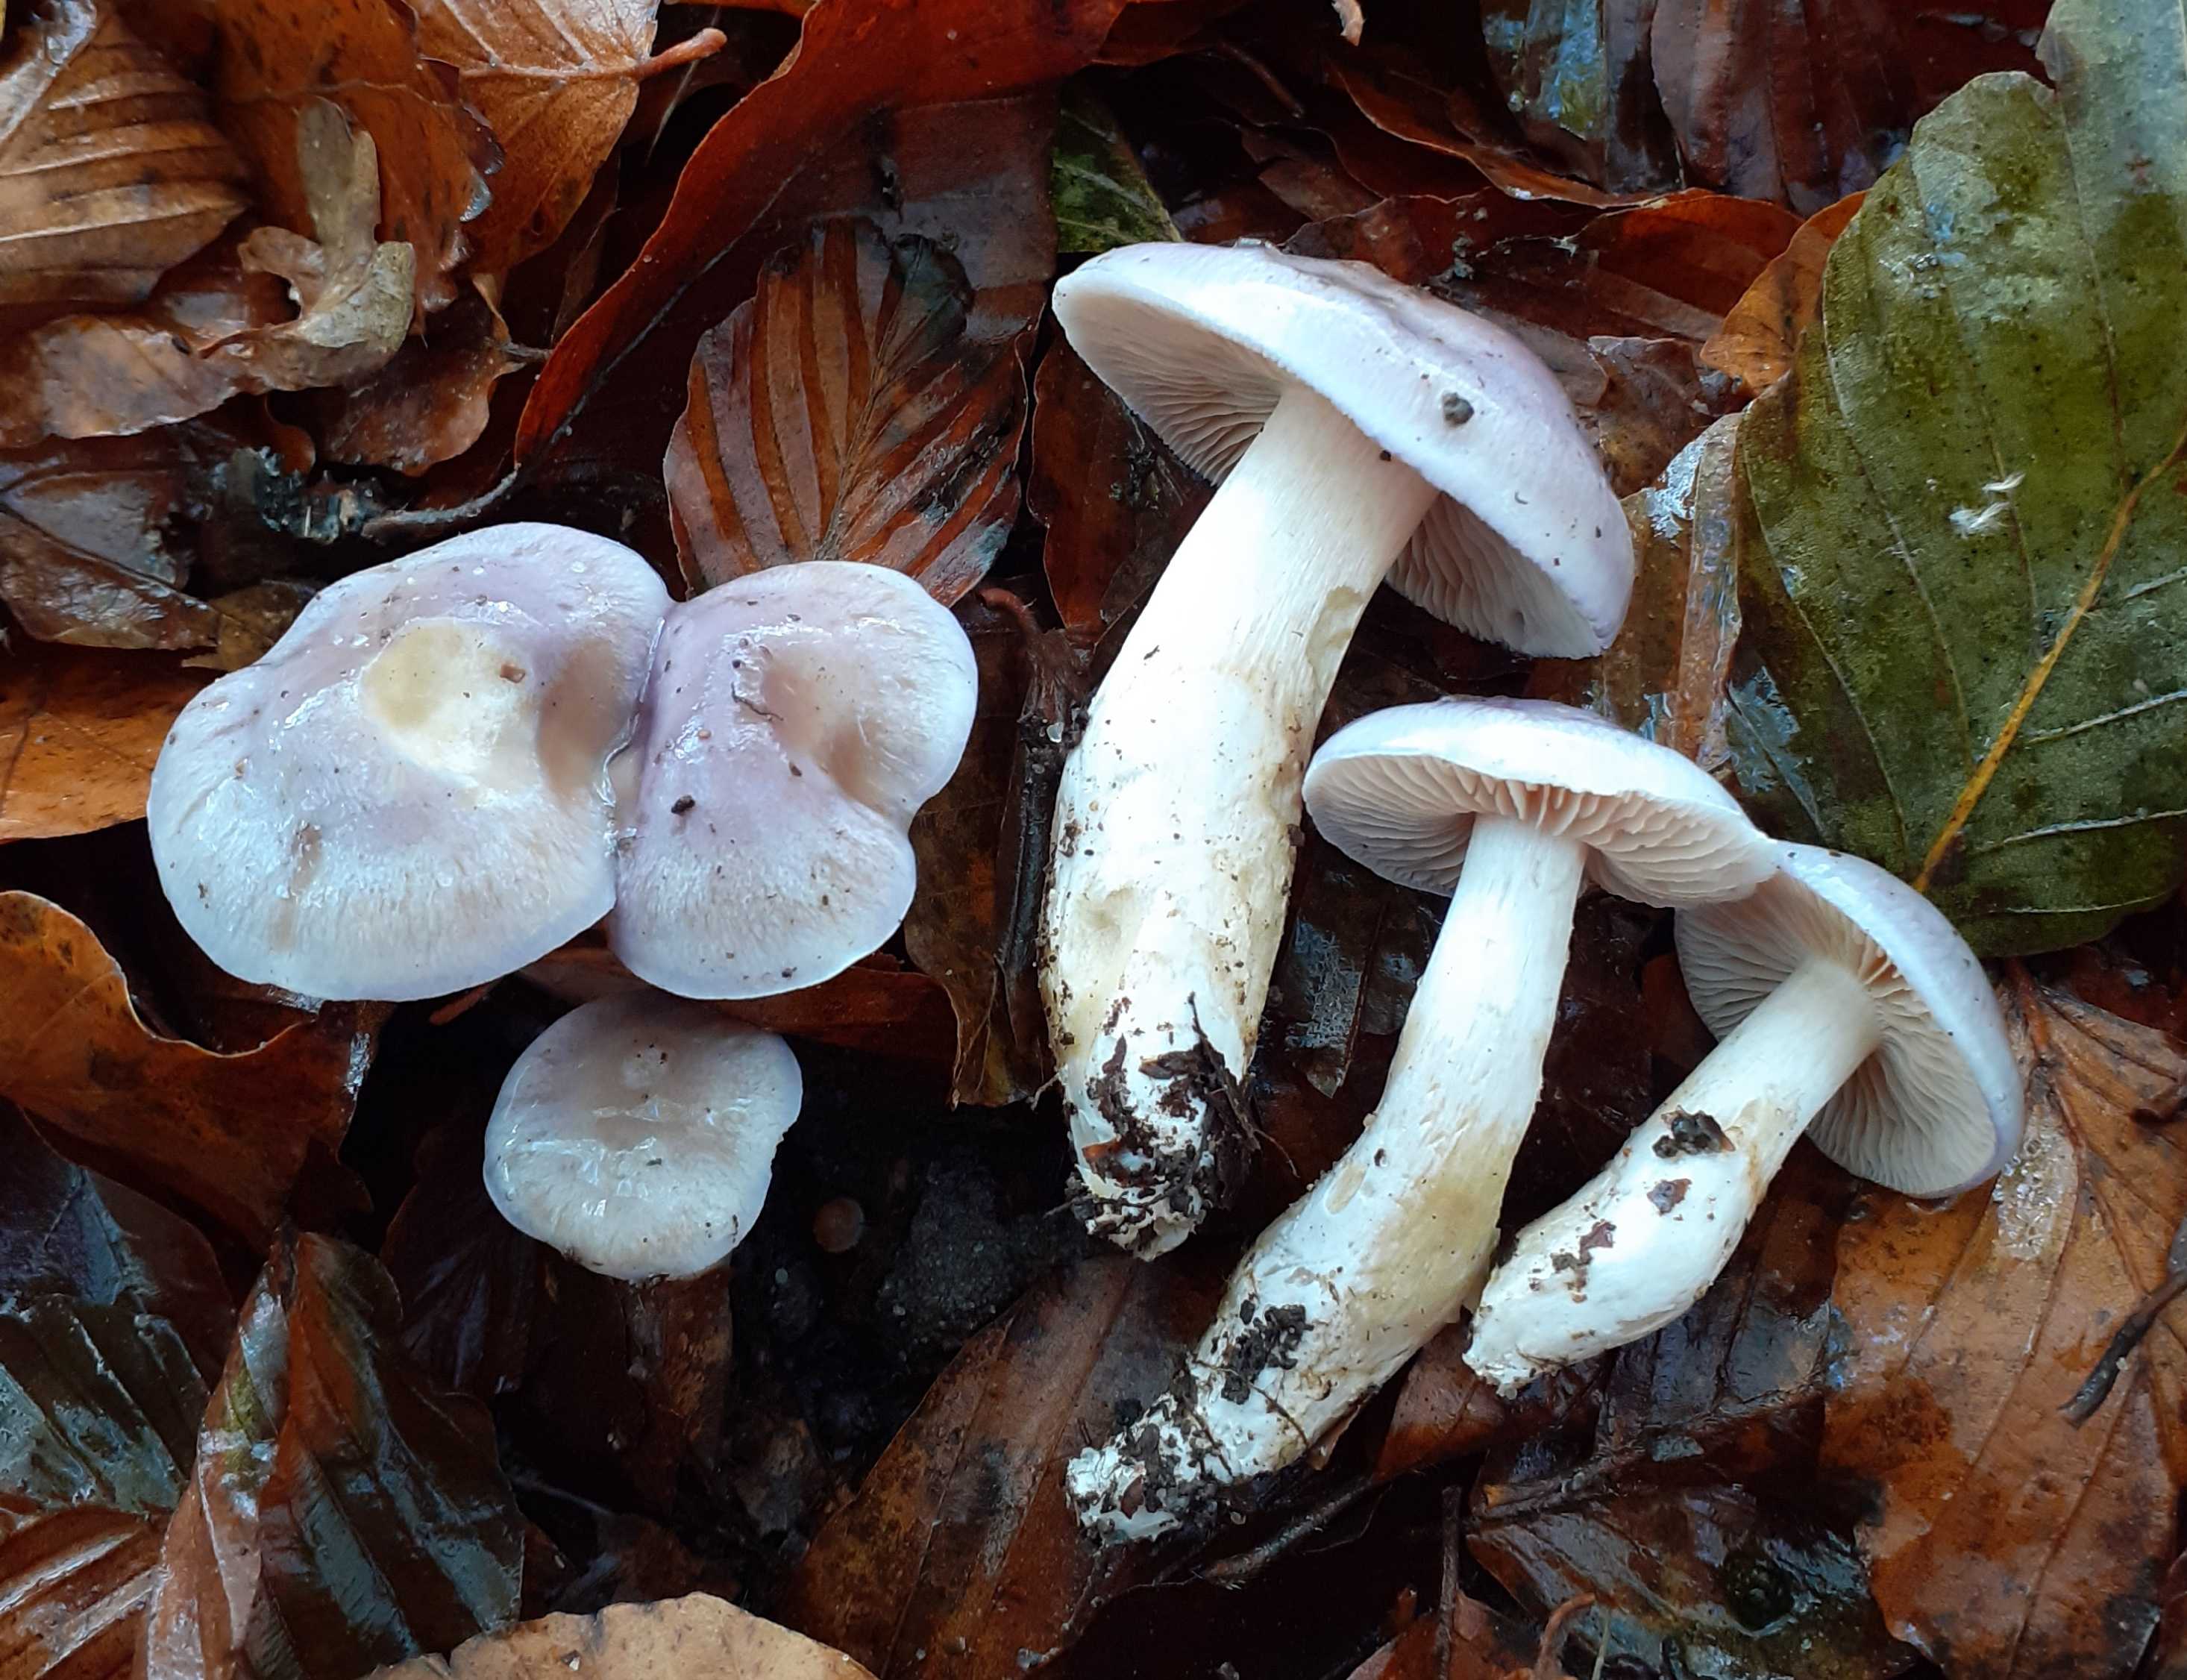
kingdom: Fungi
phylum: Basidiomycota
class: Agaricomycetes
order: Agaricales
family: Cortinariaceae
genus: Thaxterogaster
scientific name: Thaxterogaster croceocoeruleus
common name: blågullig slørhat
